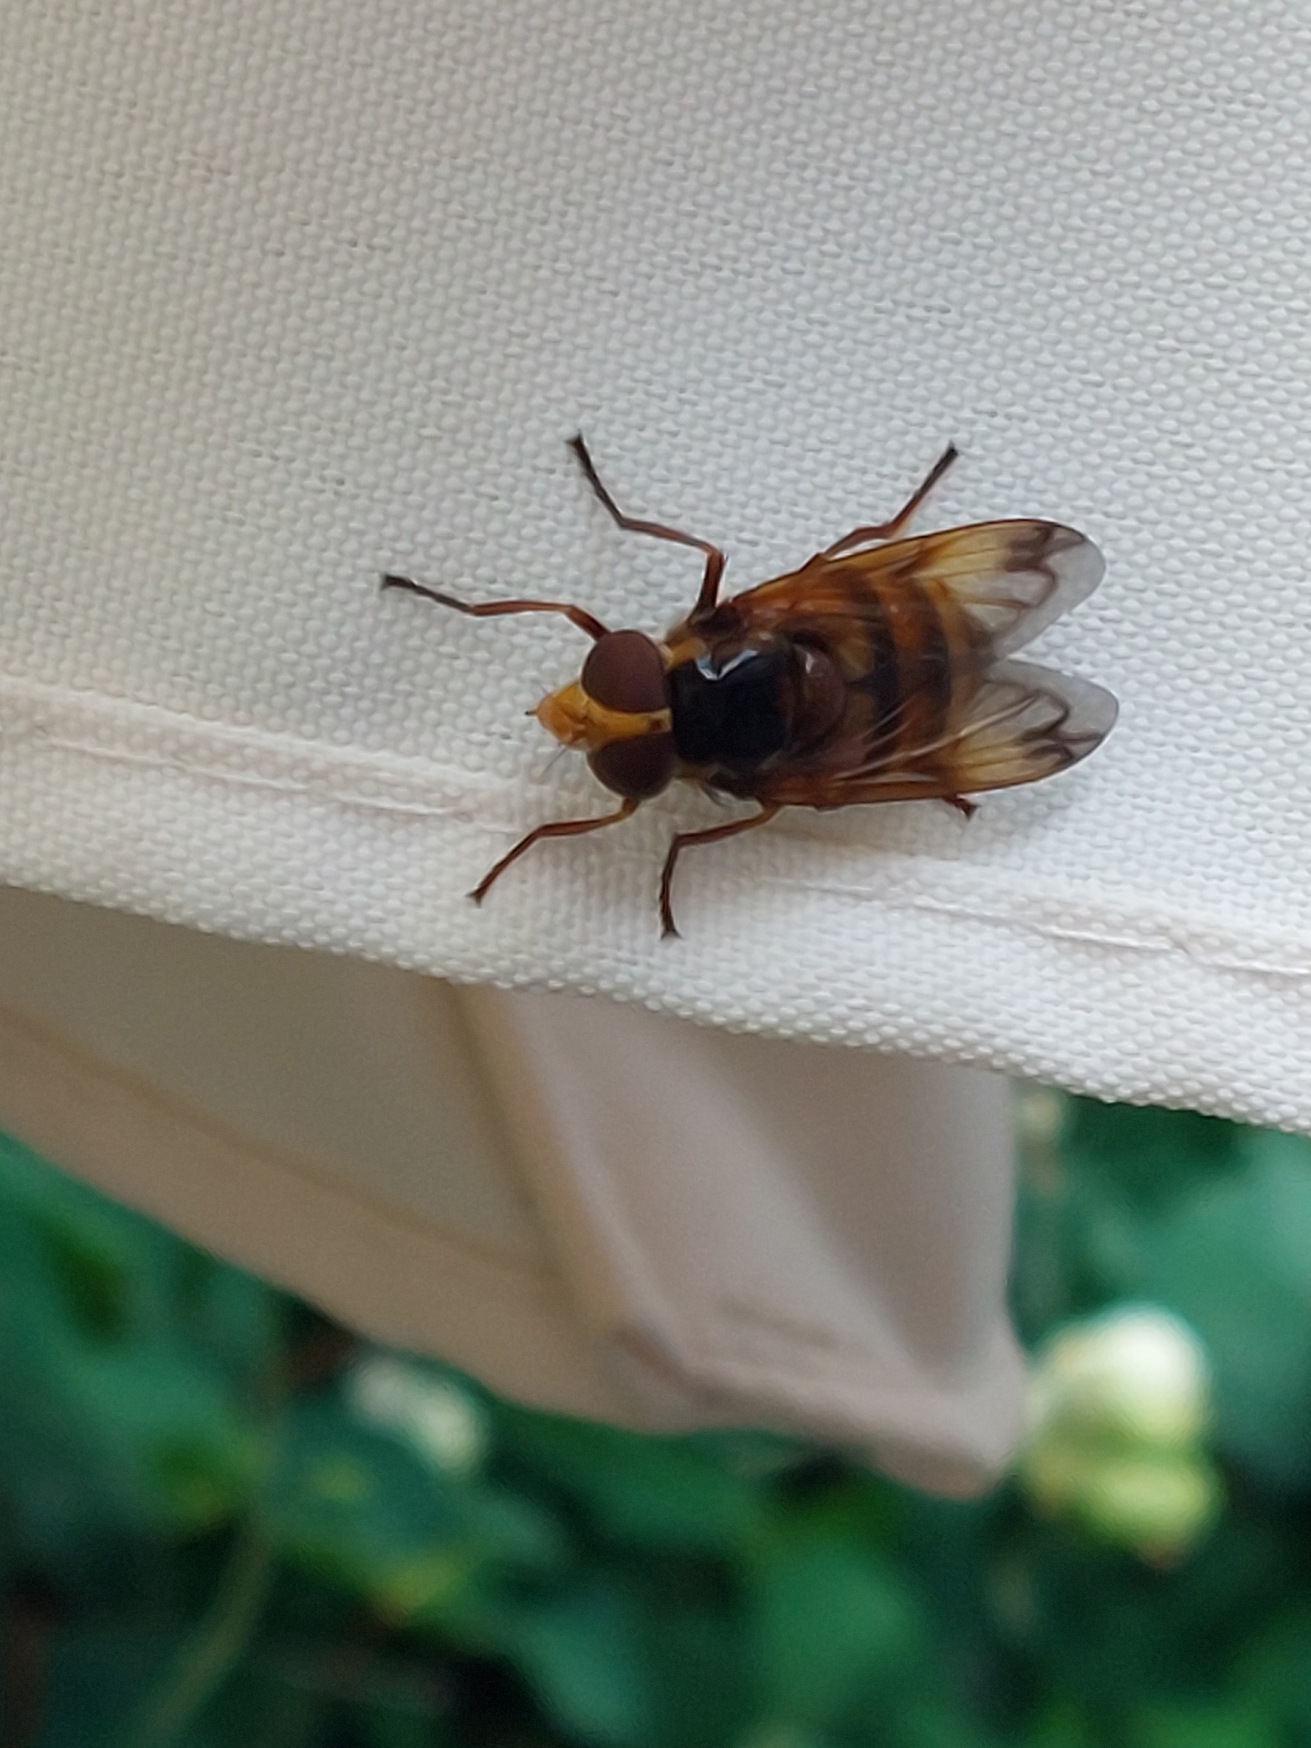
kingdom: Animalia
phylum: Arthropoda
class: Insecta
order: Diptera
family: Syrphidae
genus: Volucella
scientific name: Volucella zonaria
